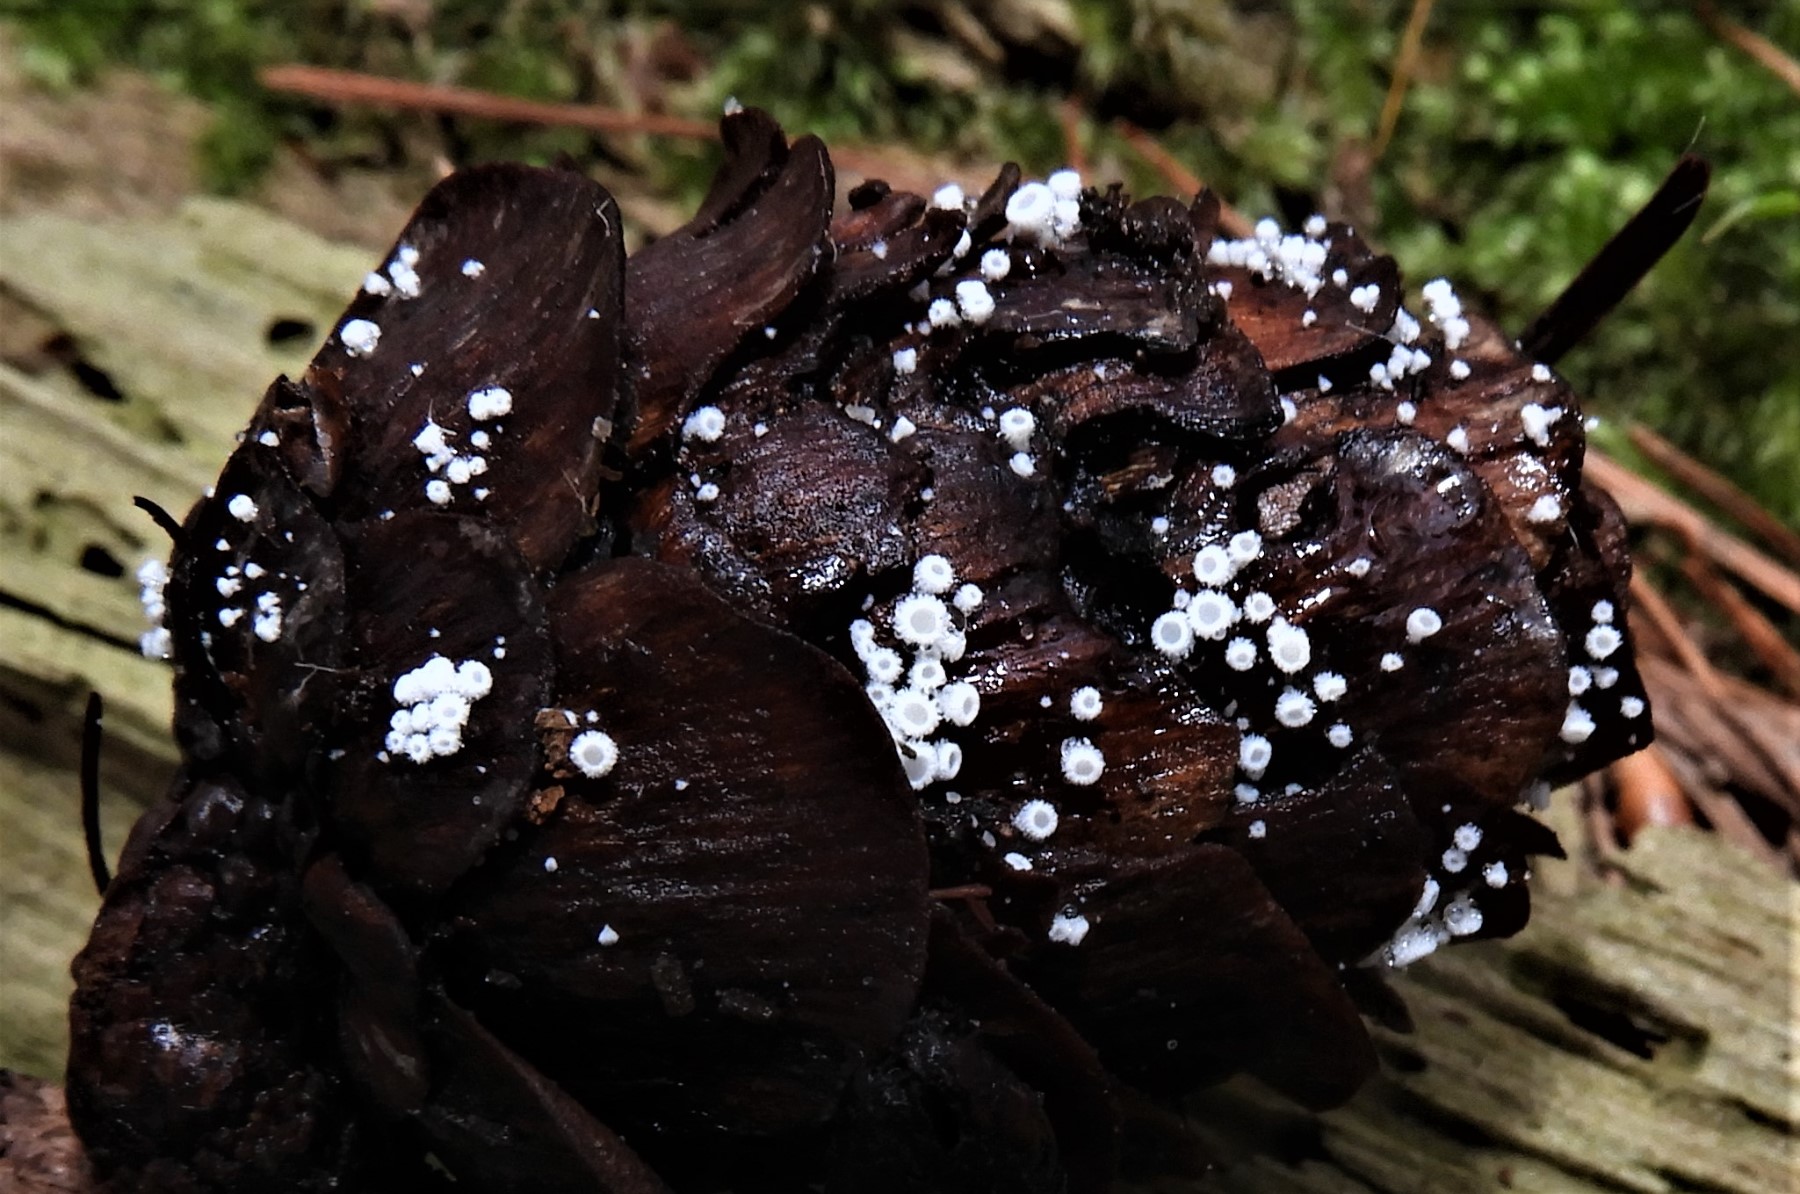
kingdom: Fungi
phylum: Ascomycota
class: Leotiomycetes
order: Helotiales
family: Lachnaceae
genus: Lachnum
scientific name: Lachnum virgineum
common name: jomfru-frynseskive
